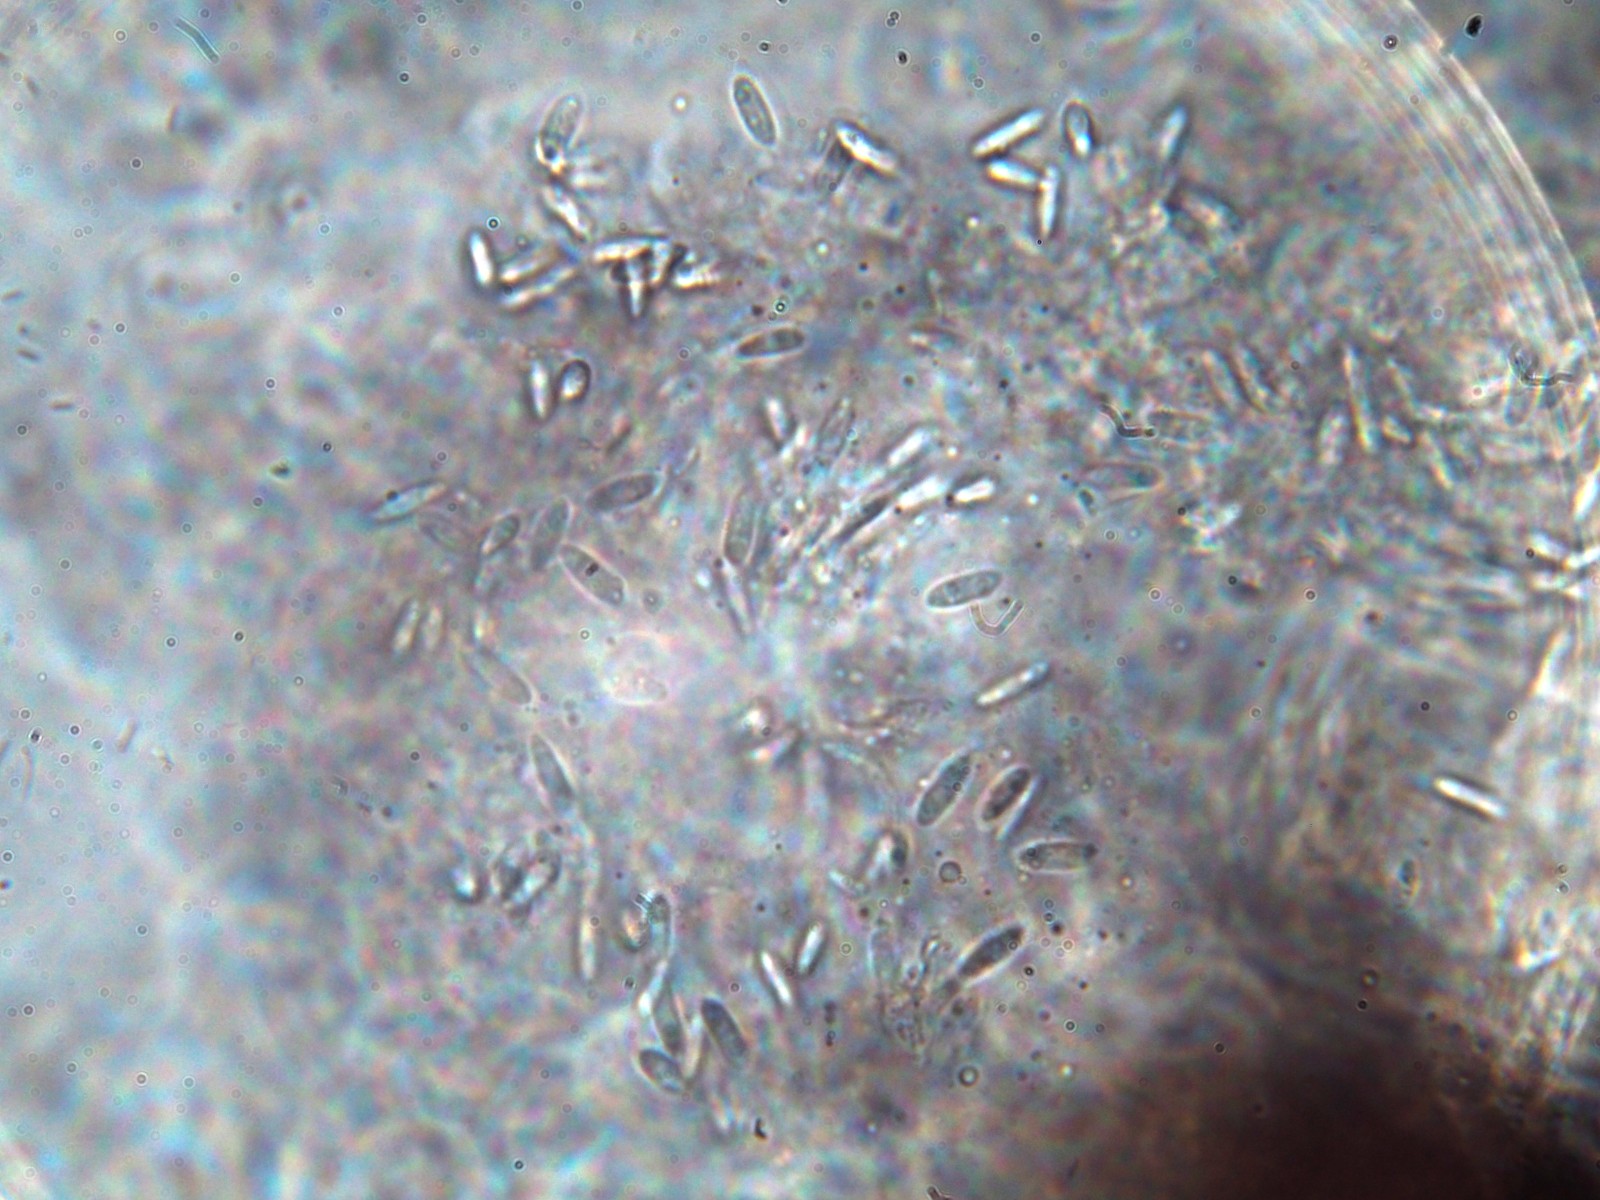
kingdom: Fungi
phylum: Ascomycota
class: Dothideomycetes
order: Pleosporales
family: Phaeosphaeriaceae
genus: Phaeosphaeria
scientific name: Phaeosphaeria sowerbyi
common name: kål-kulkegle
